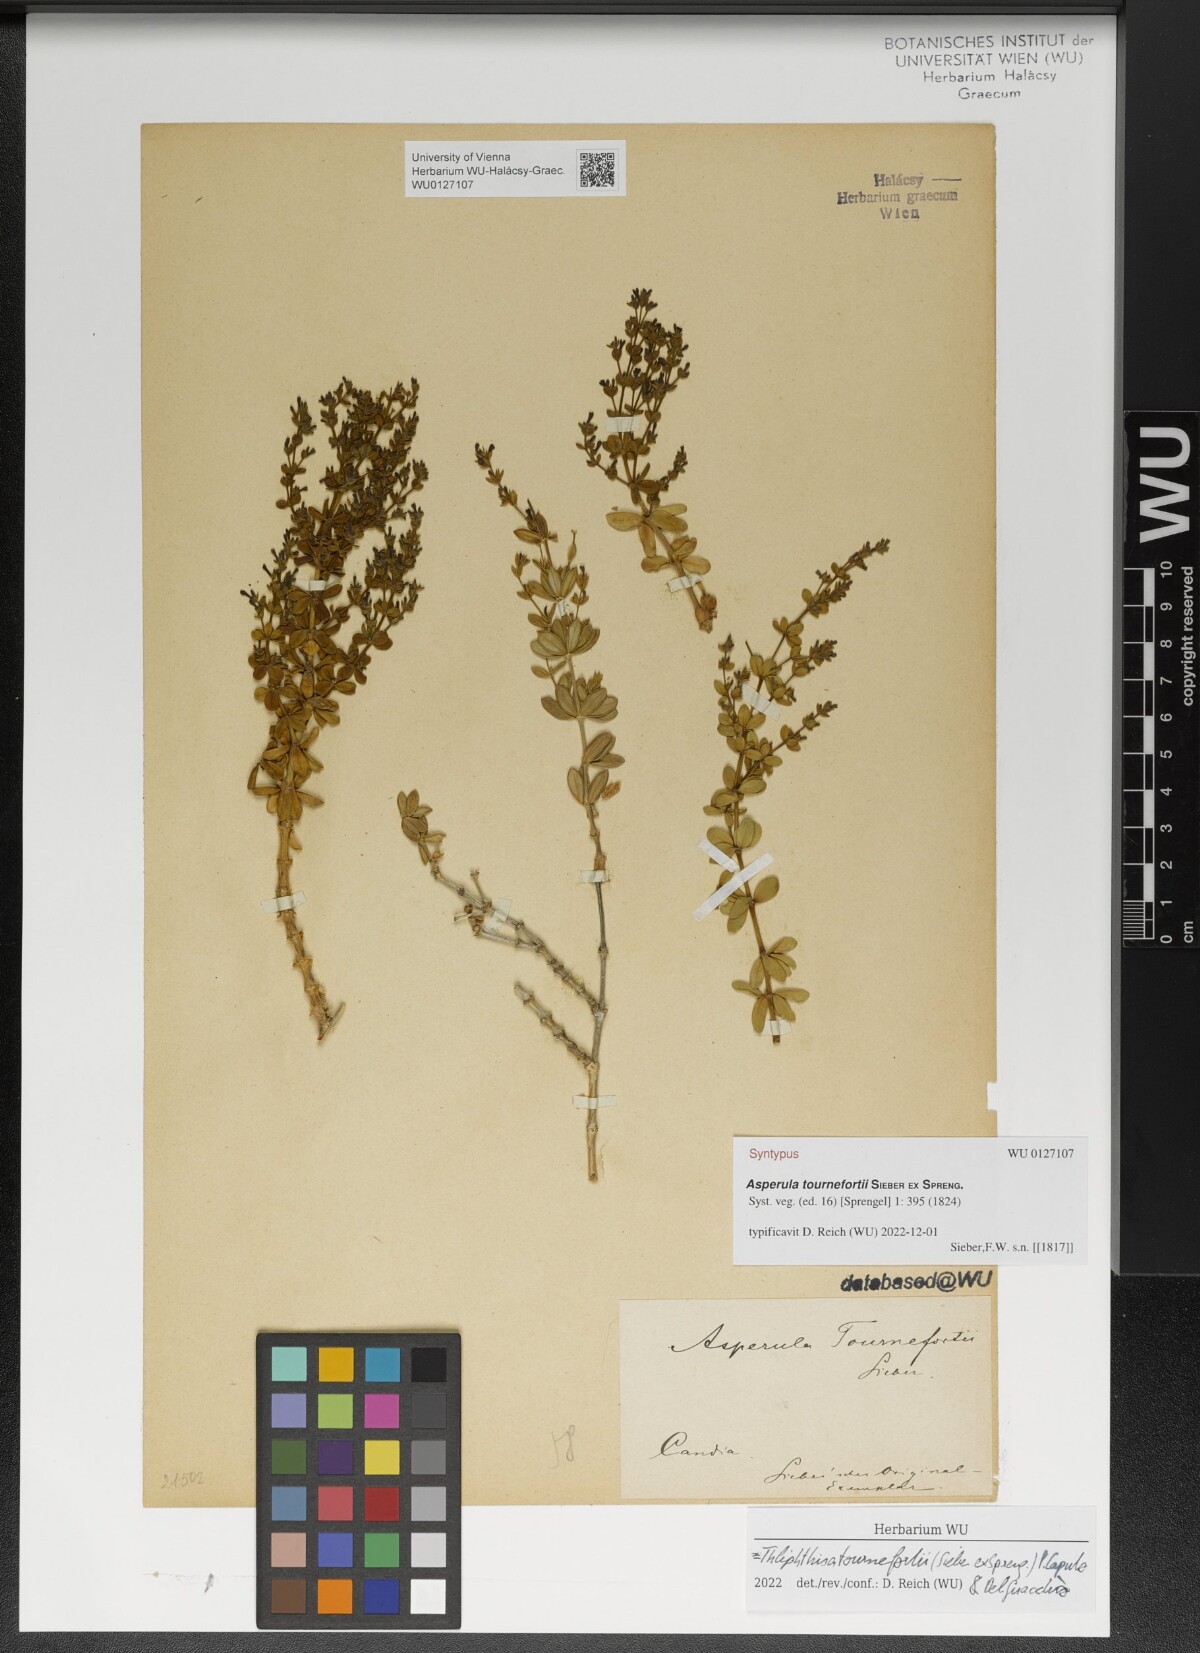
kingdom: Plantae
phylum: Tracheophyta
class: Magnoliopsida
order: Gentianales
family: Rubiaceae
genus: Asperula
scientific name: Asperula tournefortii
